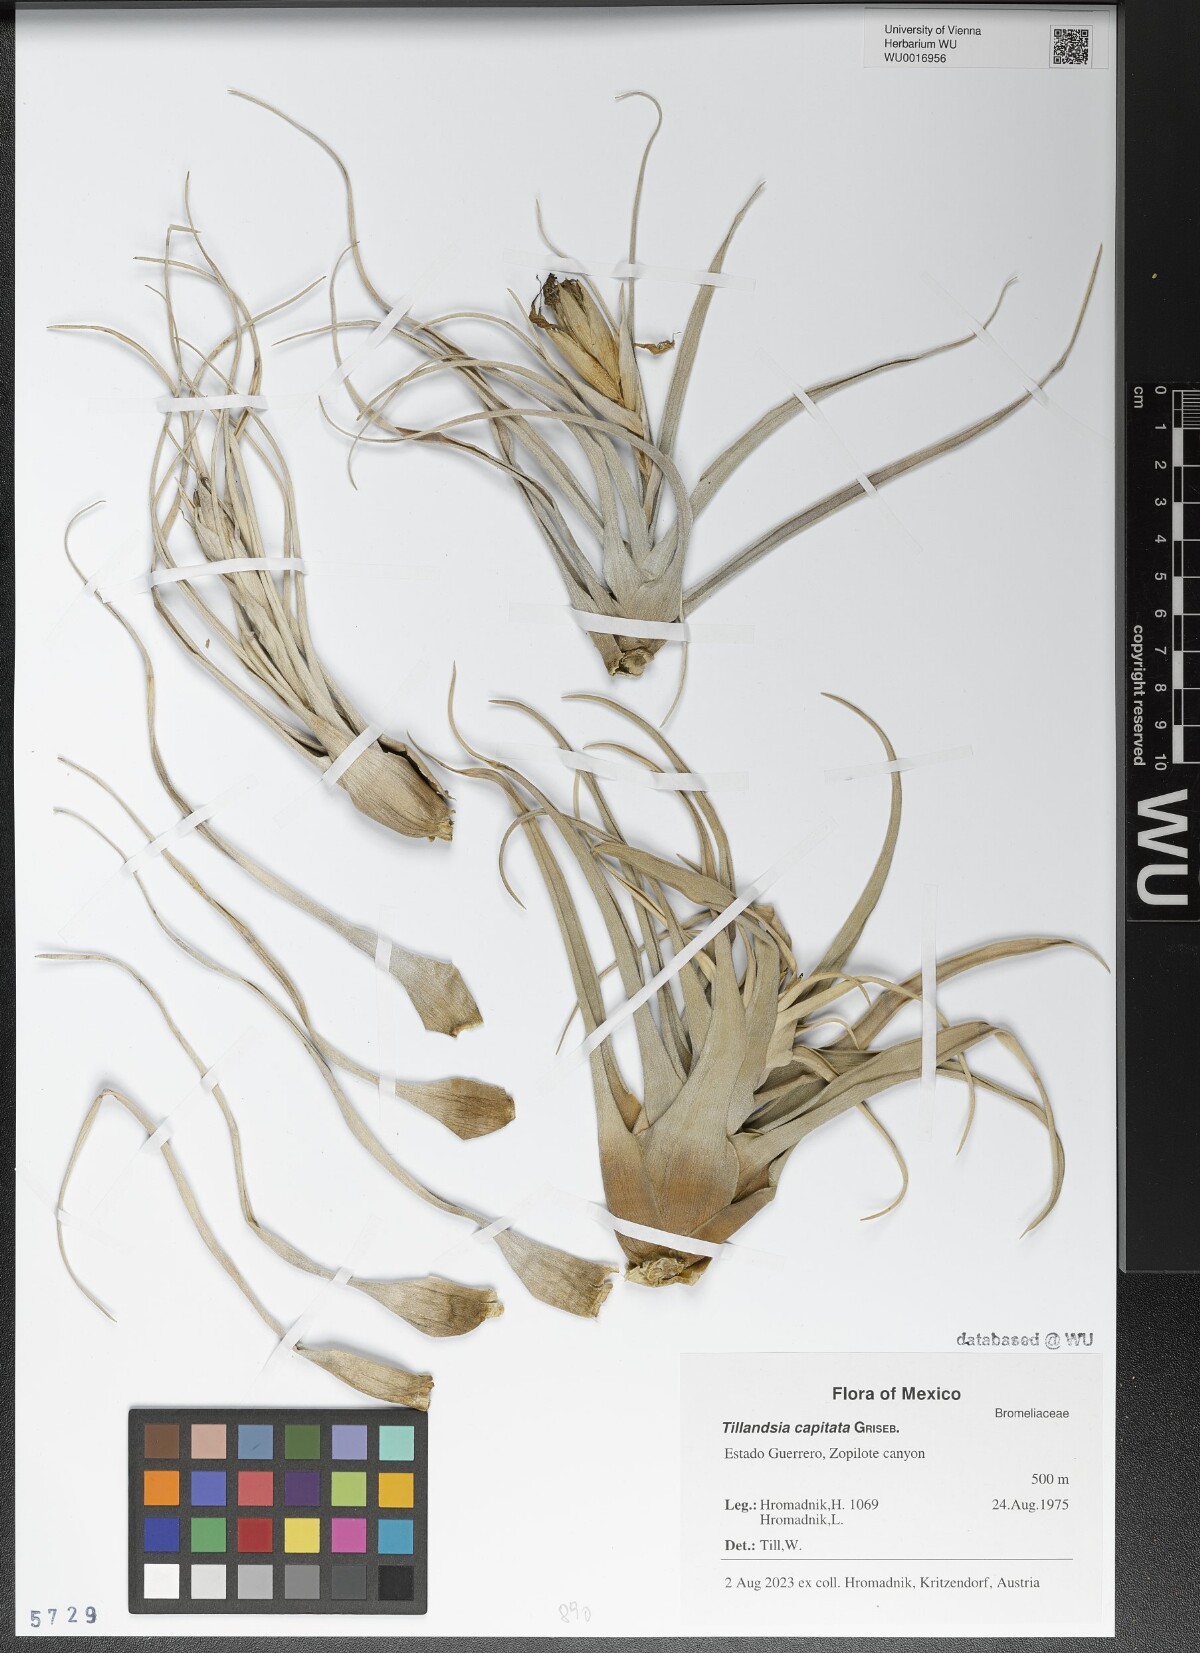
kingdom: Plantae
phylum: Tracheophyta
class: Liliopsida
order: Poales
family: Bromeliaceae
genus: Tillandsia
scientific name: Tillandsia capitata
